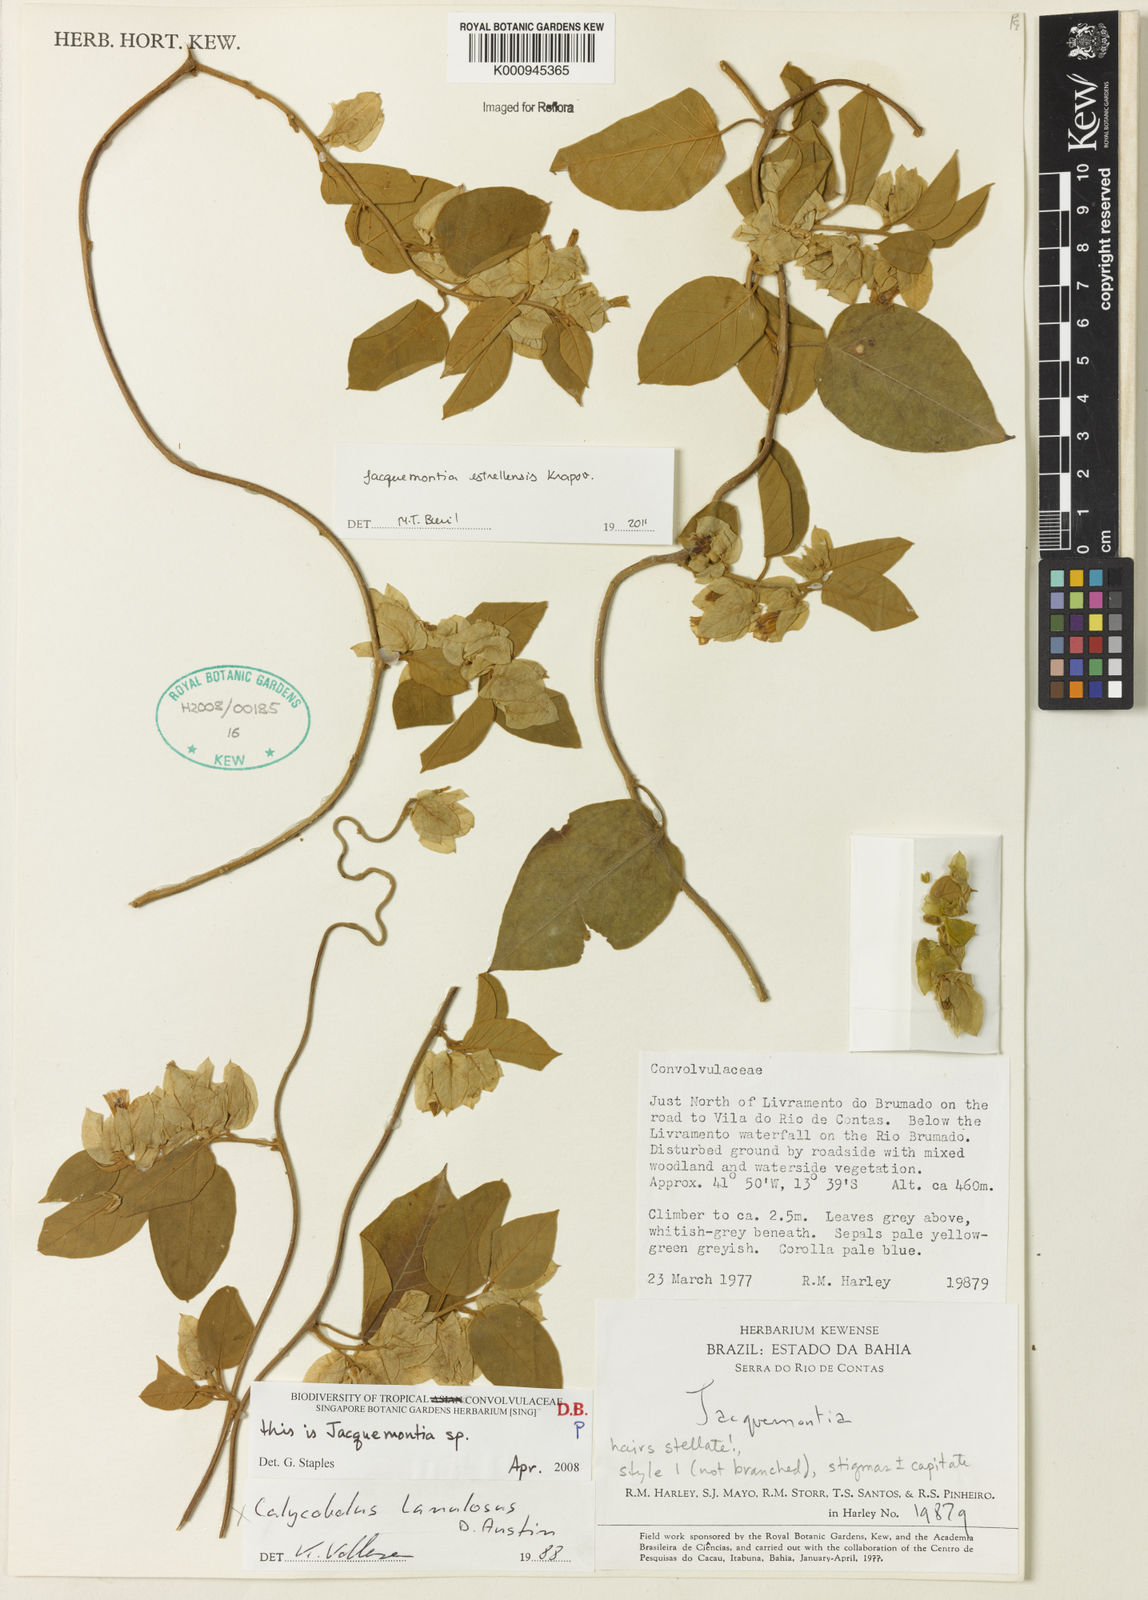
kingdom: Plantae
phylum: Tracheophyta
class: Magnoliopsida
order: Solanales
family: Convolvulaceae
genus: Jacquemontia
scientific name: Jacquemontia
